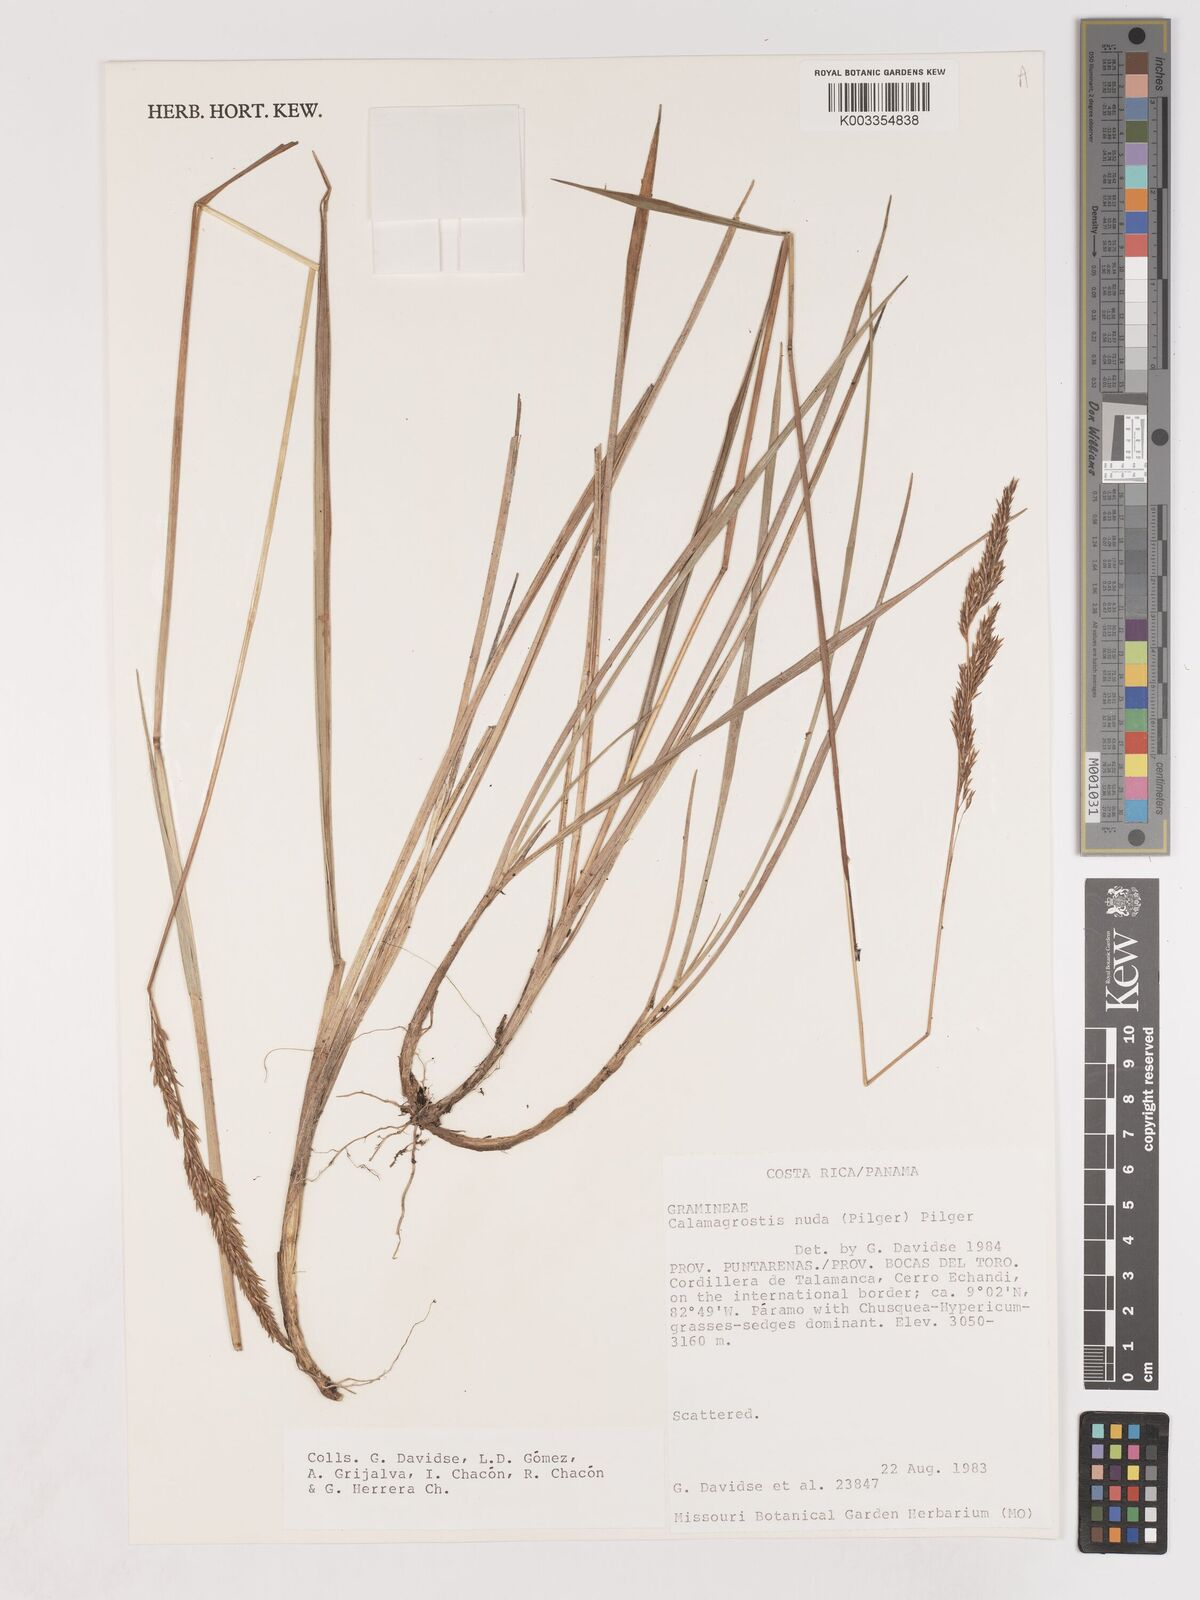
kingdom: Plantae
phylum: Tracheophyta
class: Liliopsida
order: Poales
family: Poaceae
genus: Calamagrostis
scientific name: Calamagrostis bogotensis
